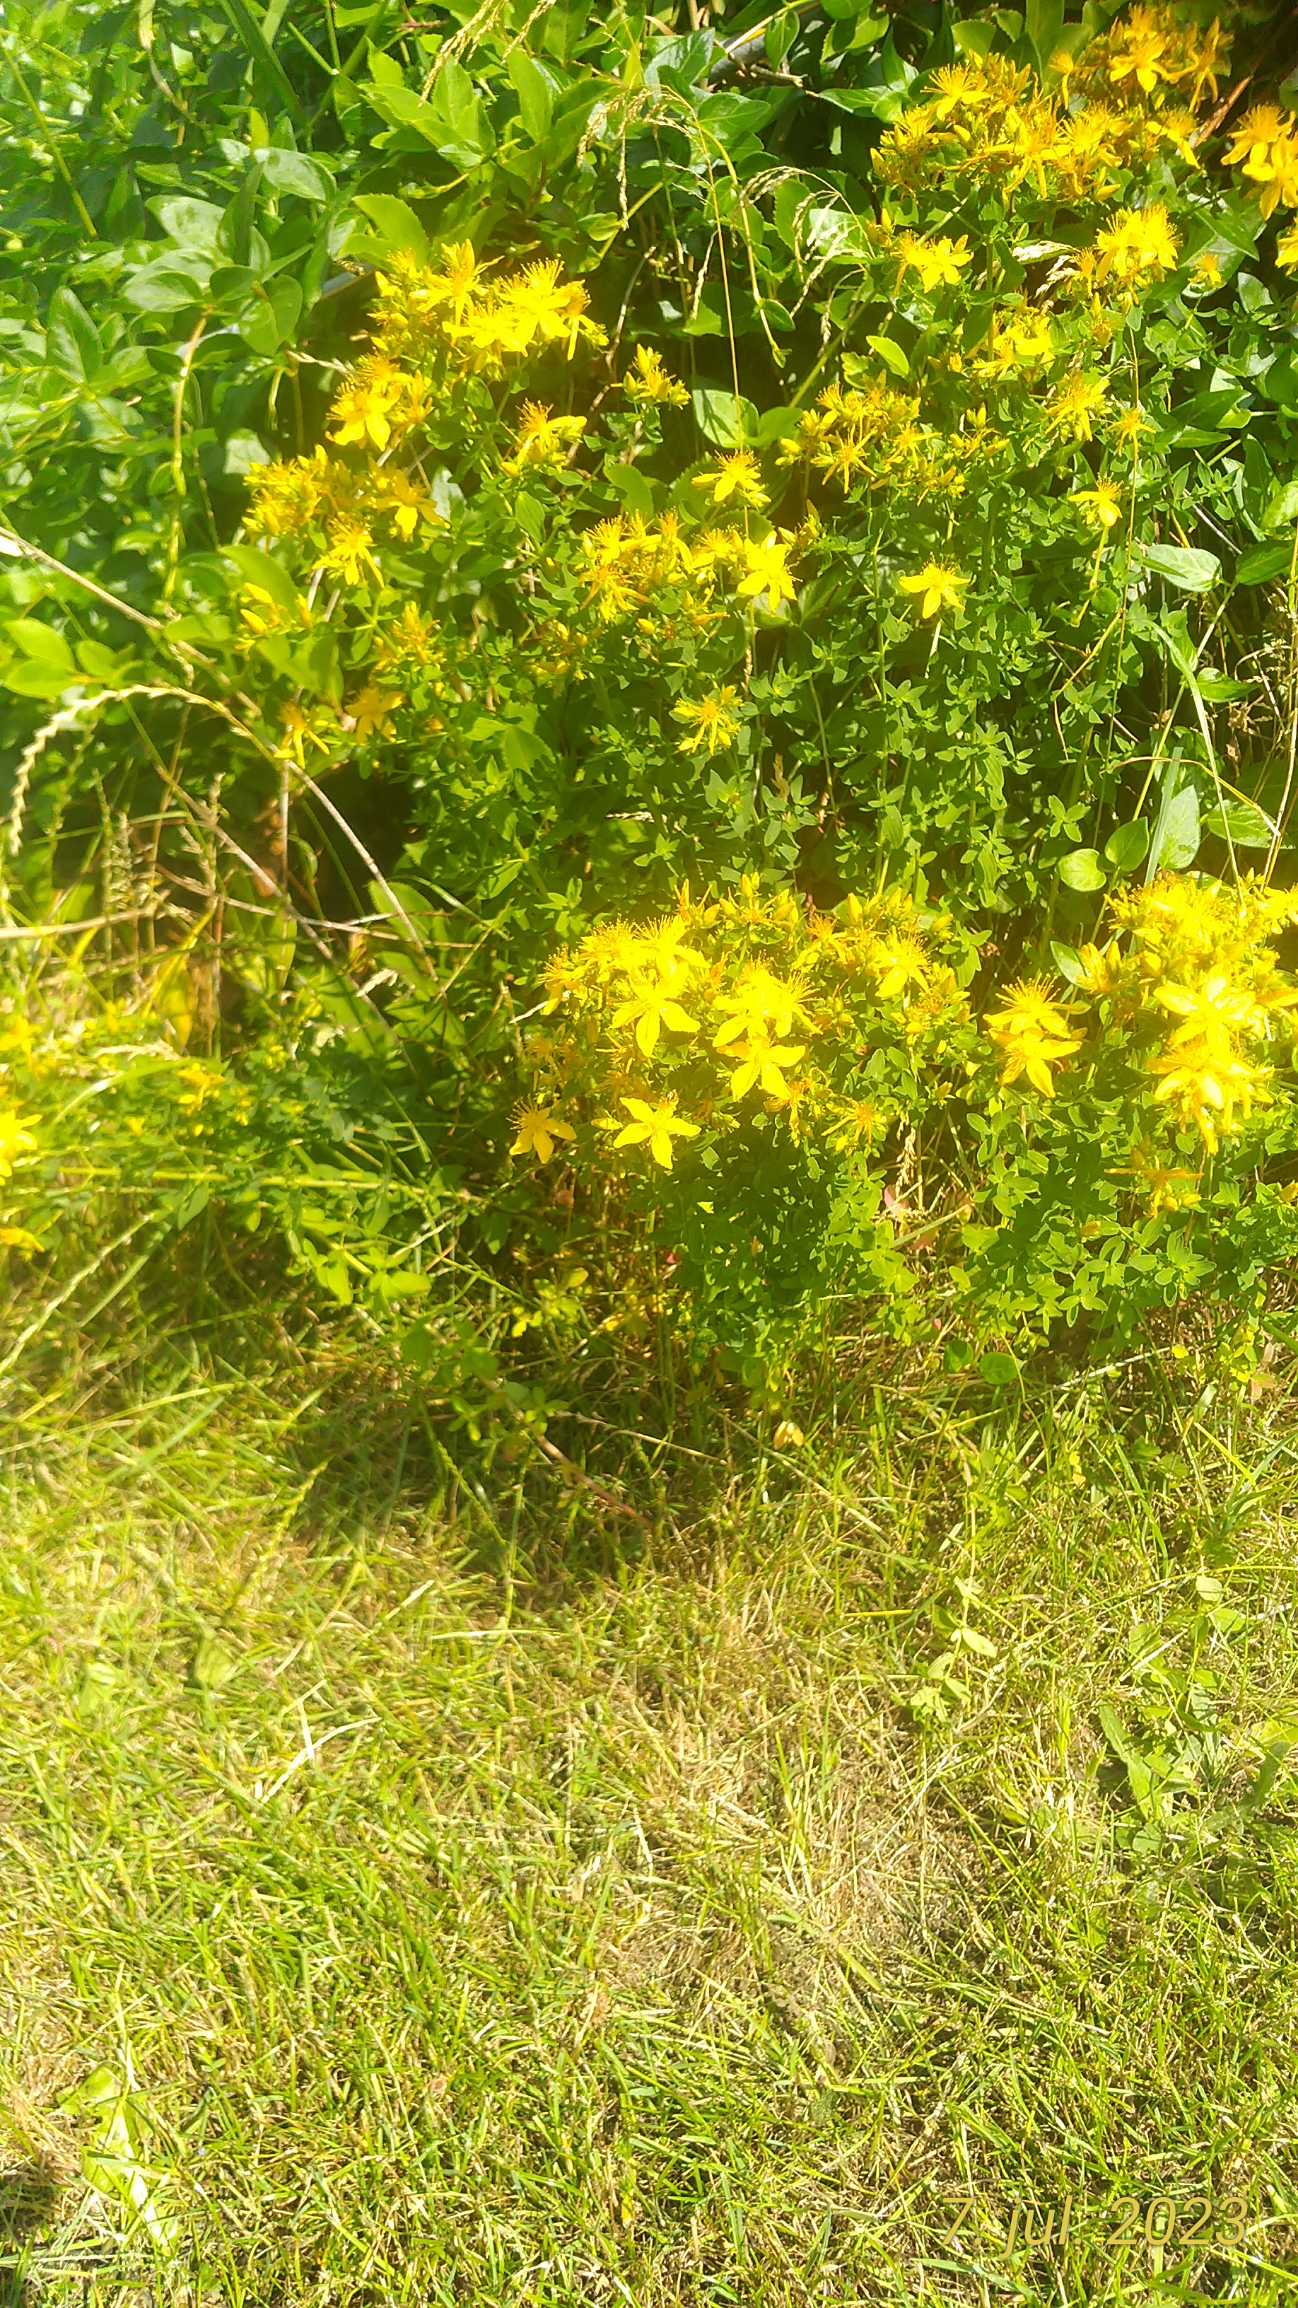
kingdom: Plantae
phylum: Tracheophyta
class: Magnoliopsida
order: Malpighiales
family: Hypericaceae
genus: Hypericum
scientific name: Hypericum perforatum
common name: Prikbladet perikon
